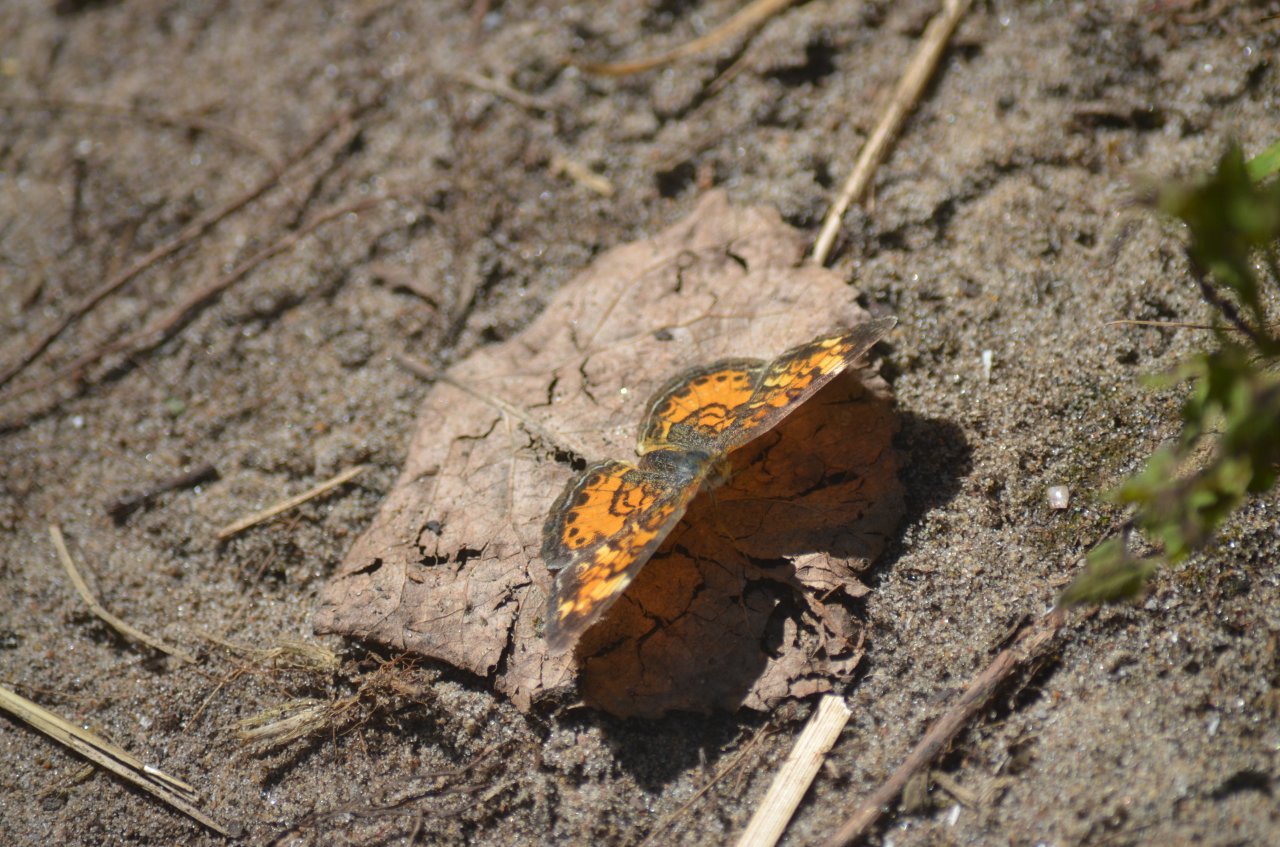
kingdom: Animalia
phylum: Arthropoda
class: Insecta
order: Lepidoptera
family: Nymphalidae
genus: Phyciodes
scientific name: Phyciodes tharos
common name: Northern Crescent
